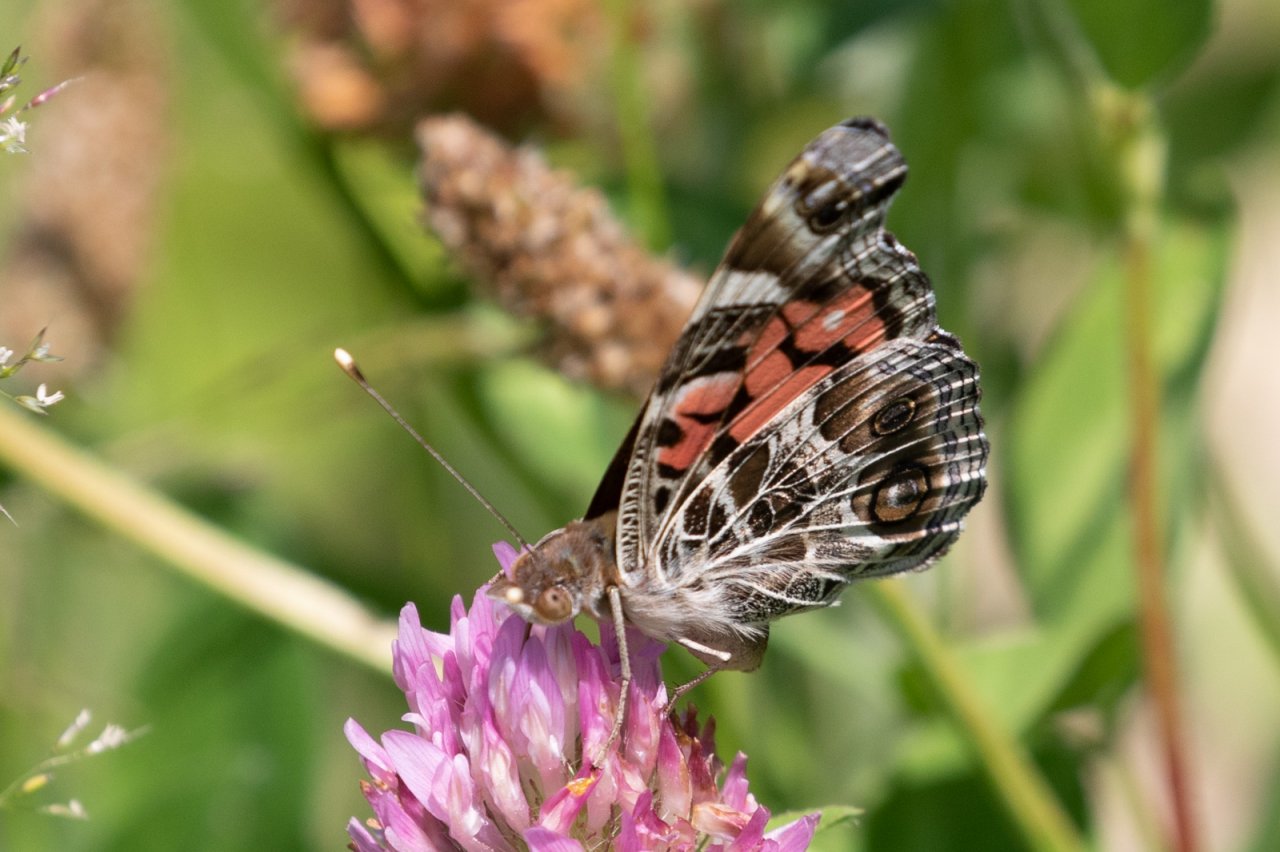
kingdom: Animalia
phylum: Arthropoda
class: Insecta
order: Lepidoptera
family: Nymphalidae
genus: Vanessa
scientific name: Vanessa virginiensis
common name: American Lady
